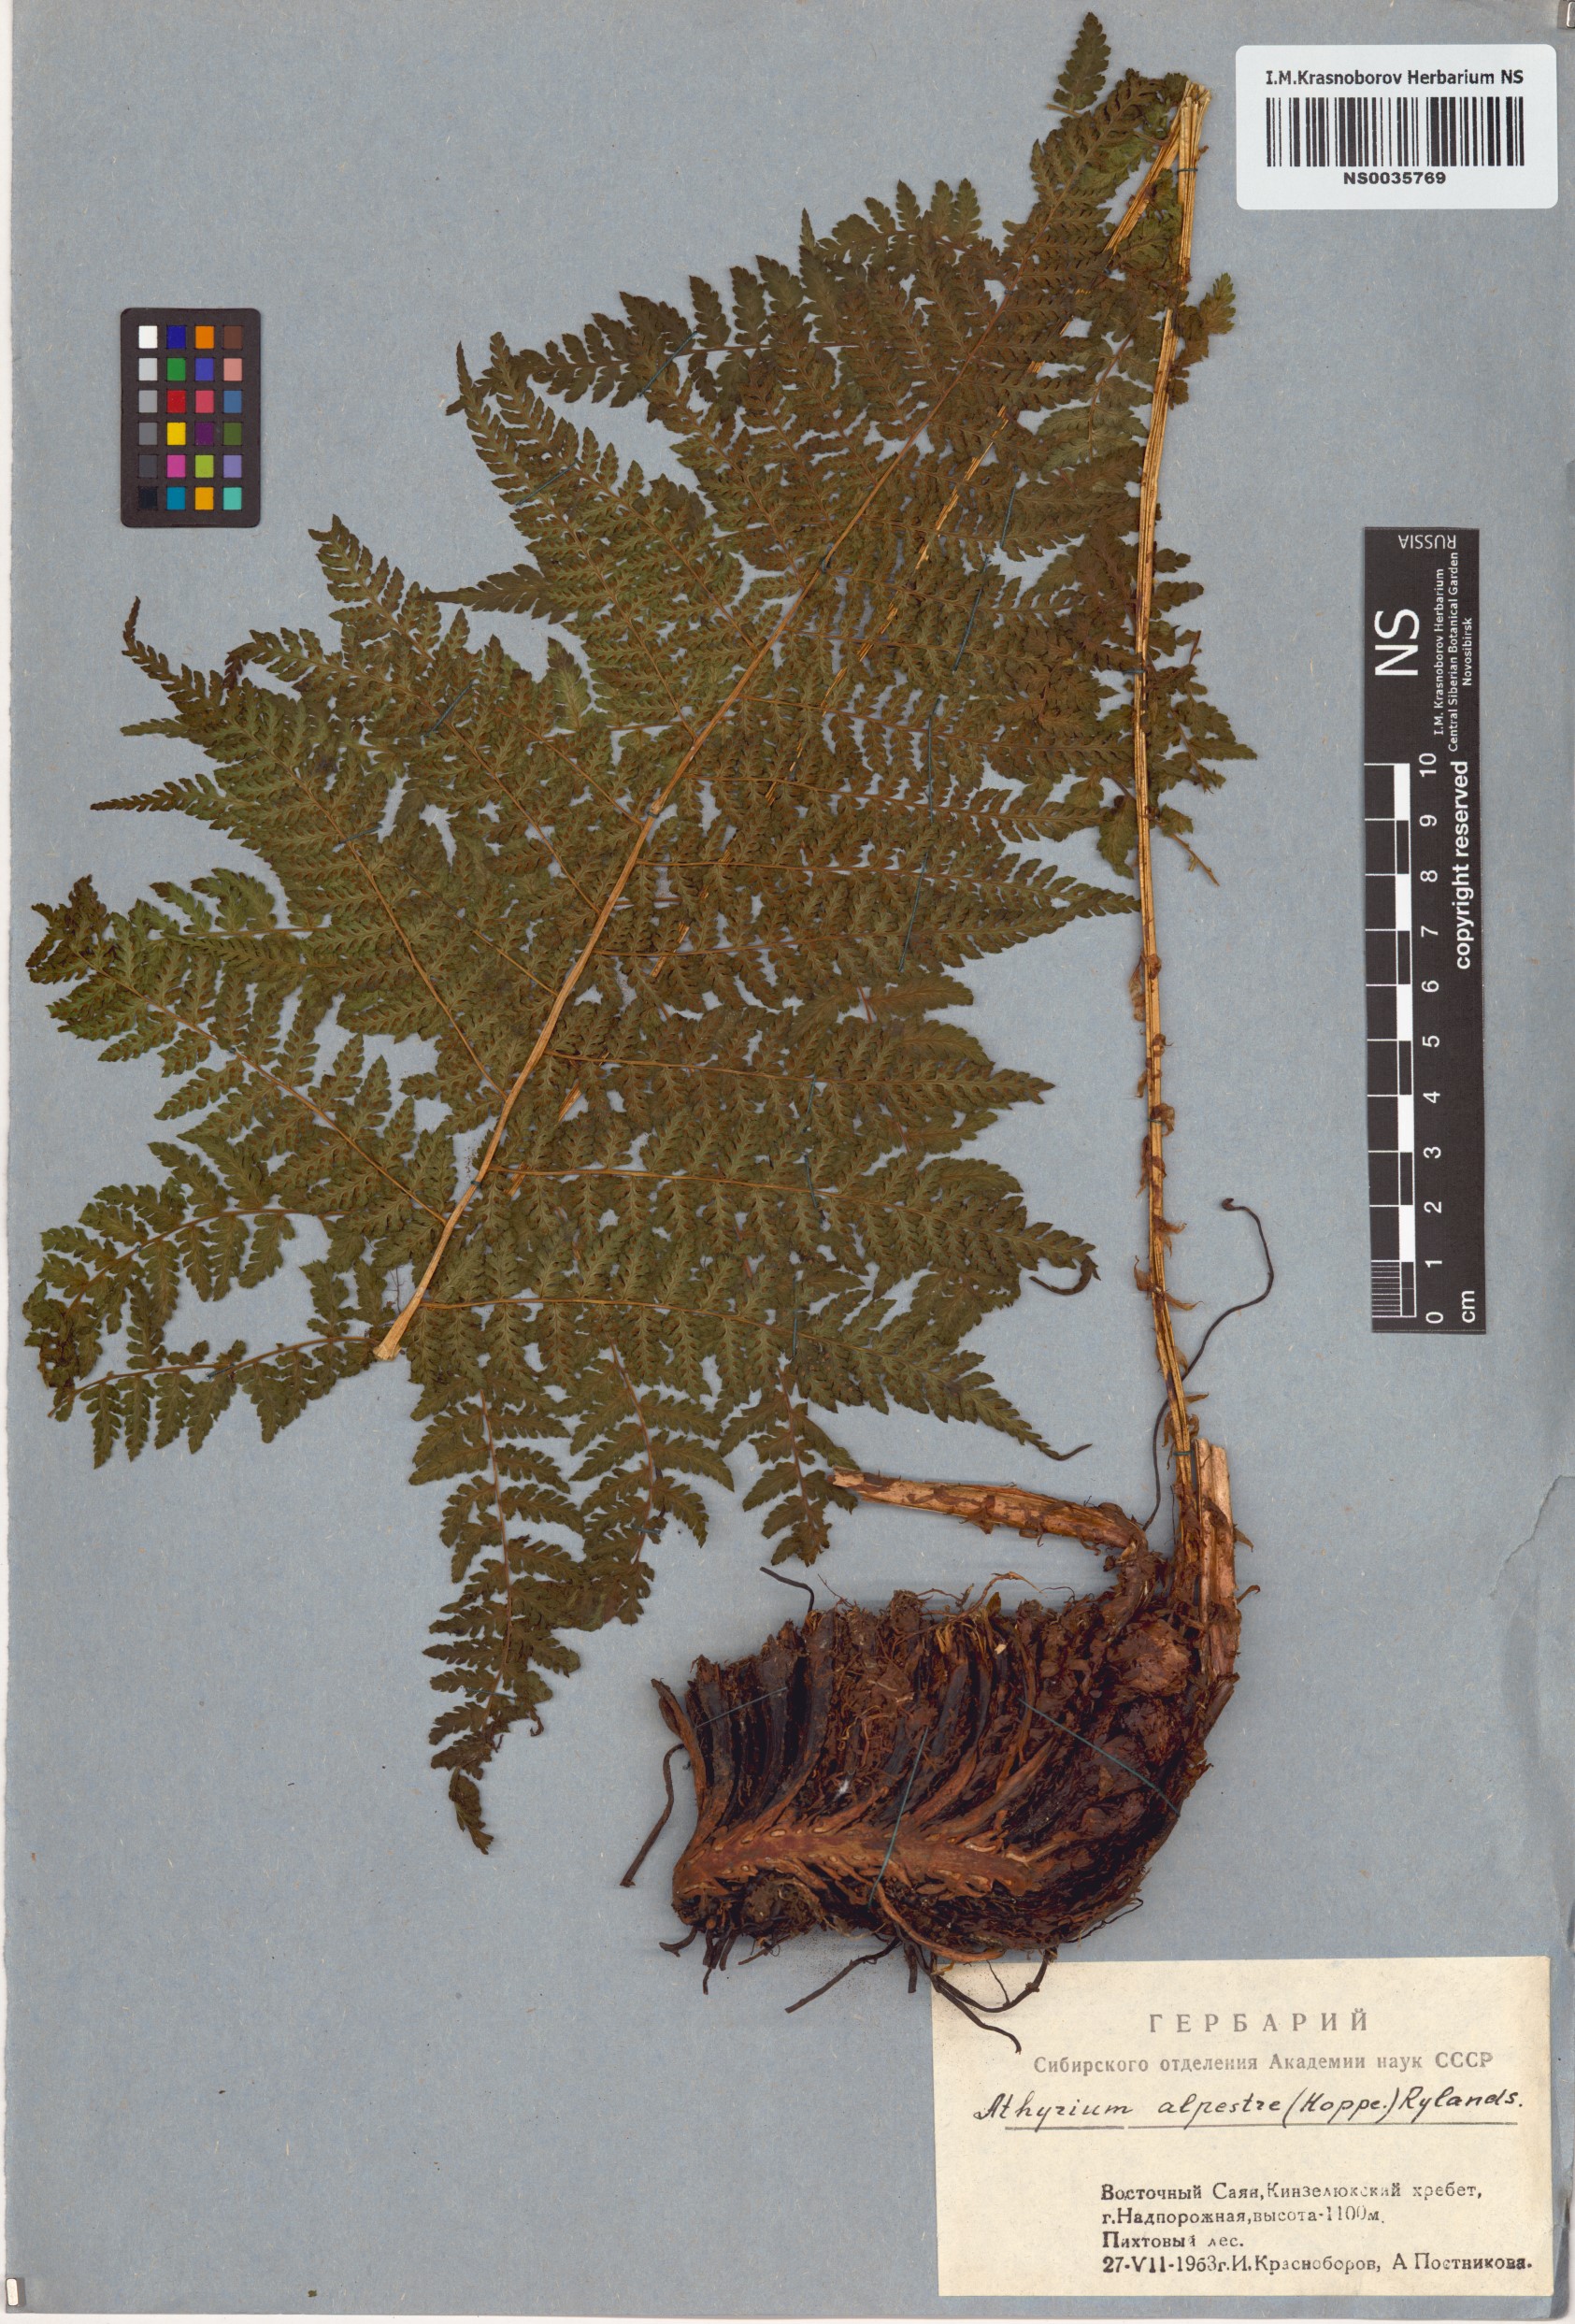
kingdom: Plantae
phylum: Tracheophyta
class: Polypodiopsida
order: Polypodiales
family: Athyriaceae
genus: Pseudathyrium
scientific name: Pseudathyrium alpestre
